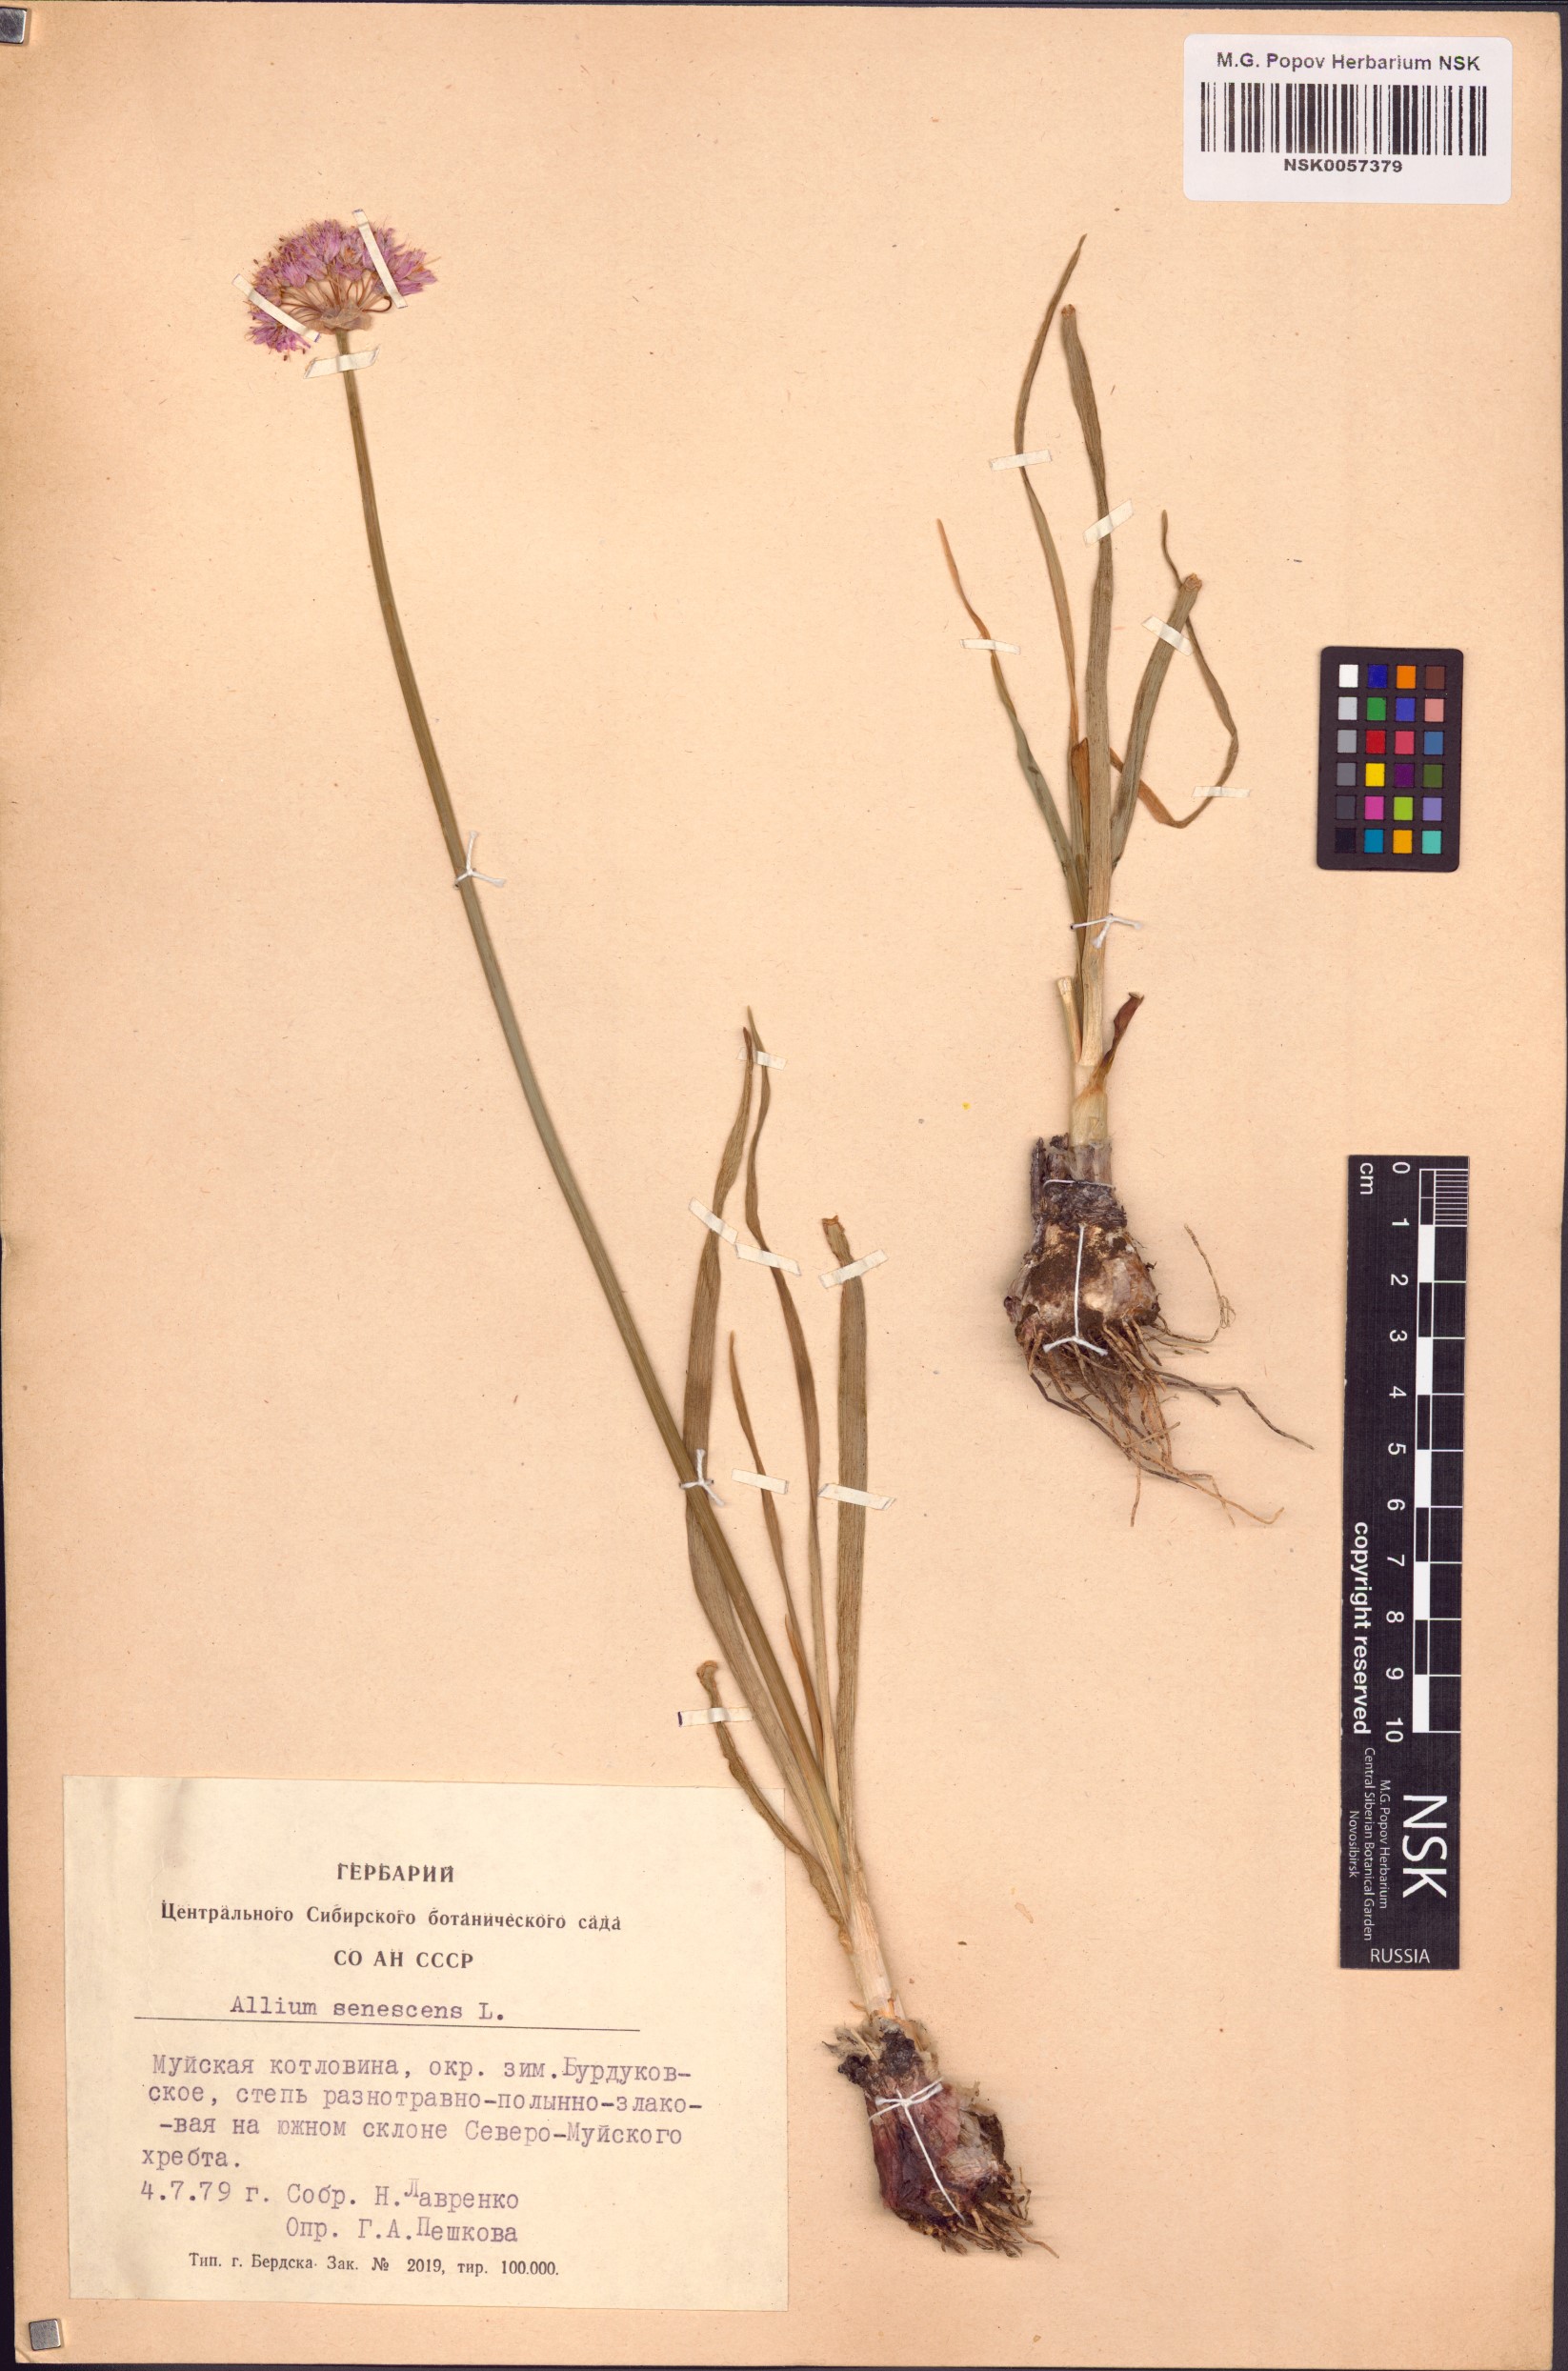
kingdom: Plantae
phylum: Tracheophyta
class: Liliopsida
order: Asparagales
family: Amaryllidaceae
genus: Allium
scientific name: Allium senescens
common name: German garlic
